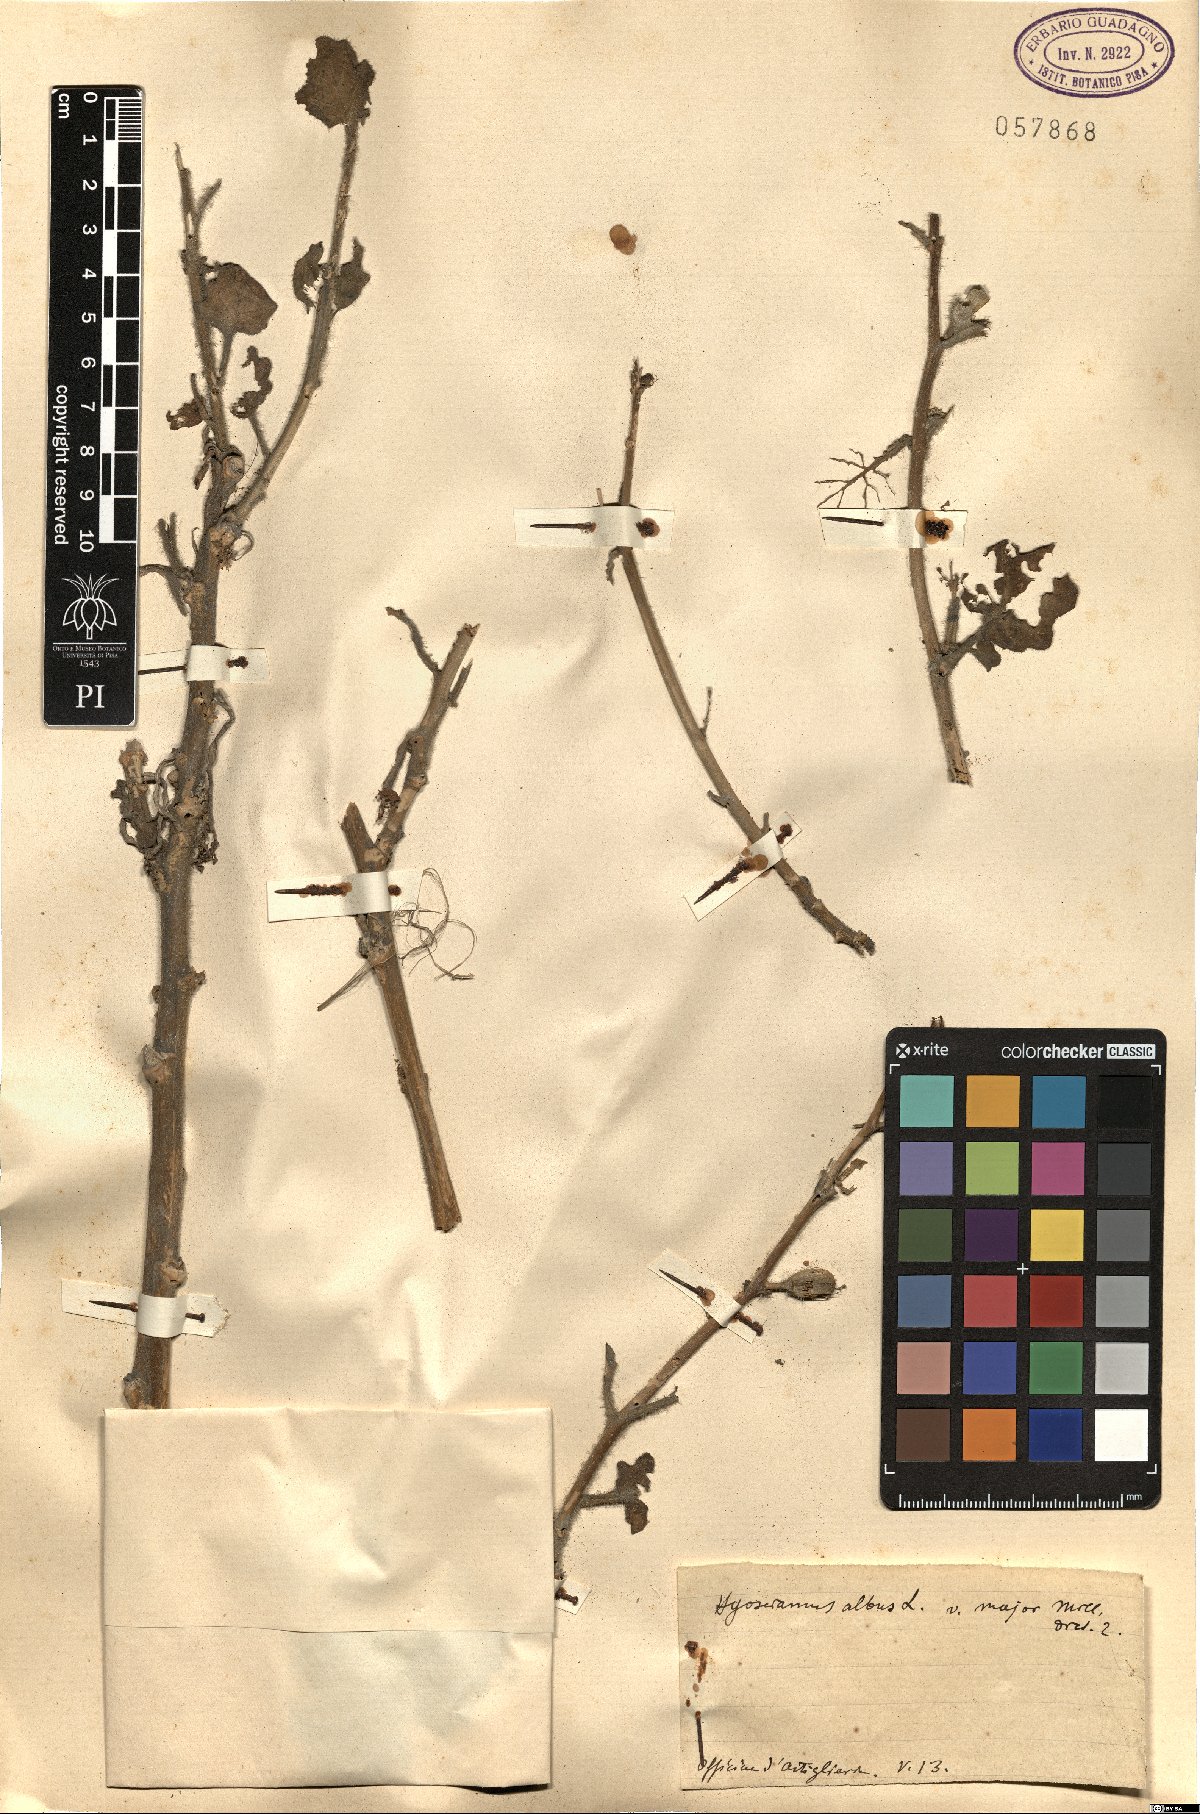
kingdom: Plantae
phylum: Tracheophyta
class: Magnoliopsida
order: Solanales
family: Solanaceae
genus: Hyoscyamus
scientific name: Hyoscyamus albus
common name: White henbane
